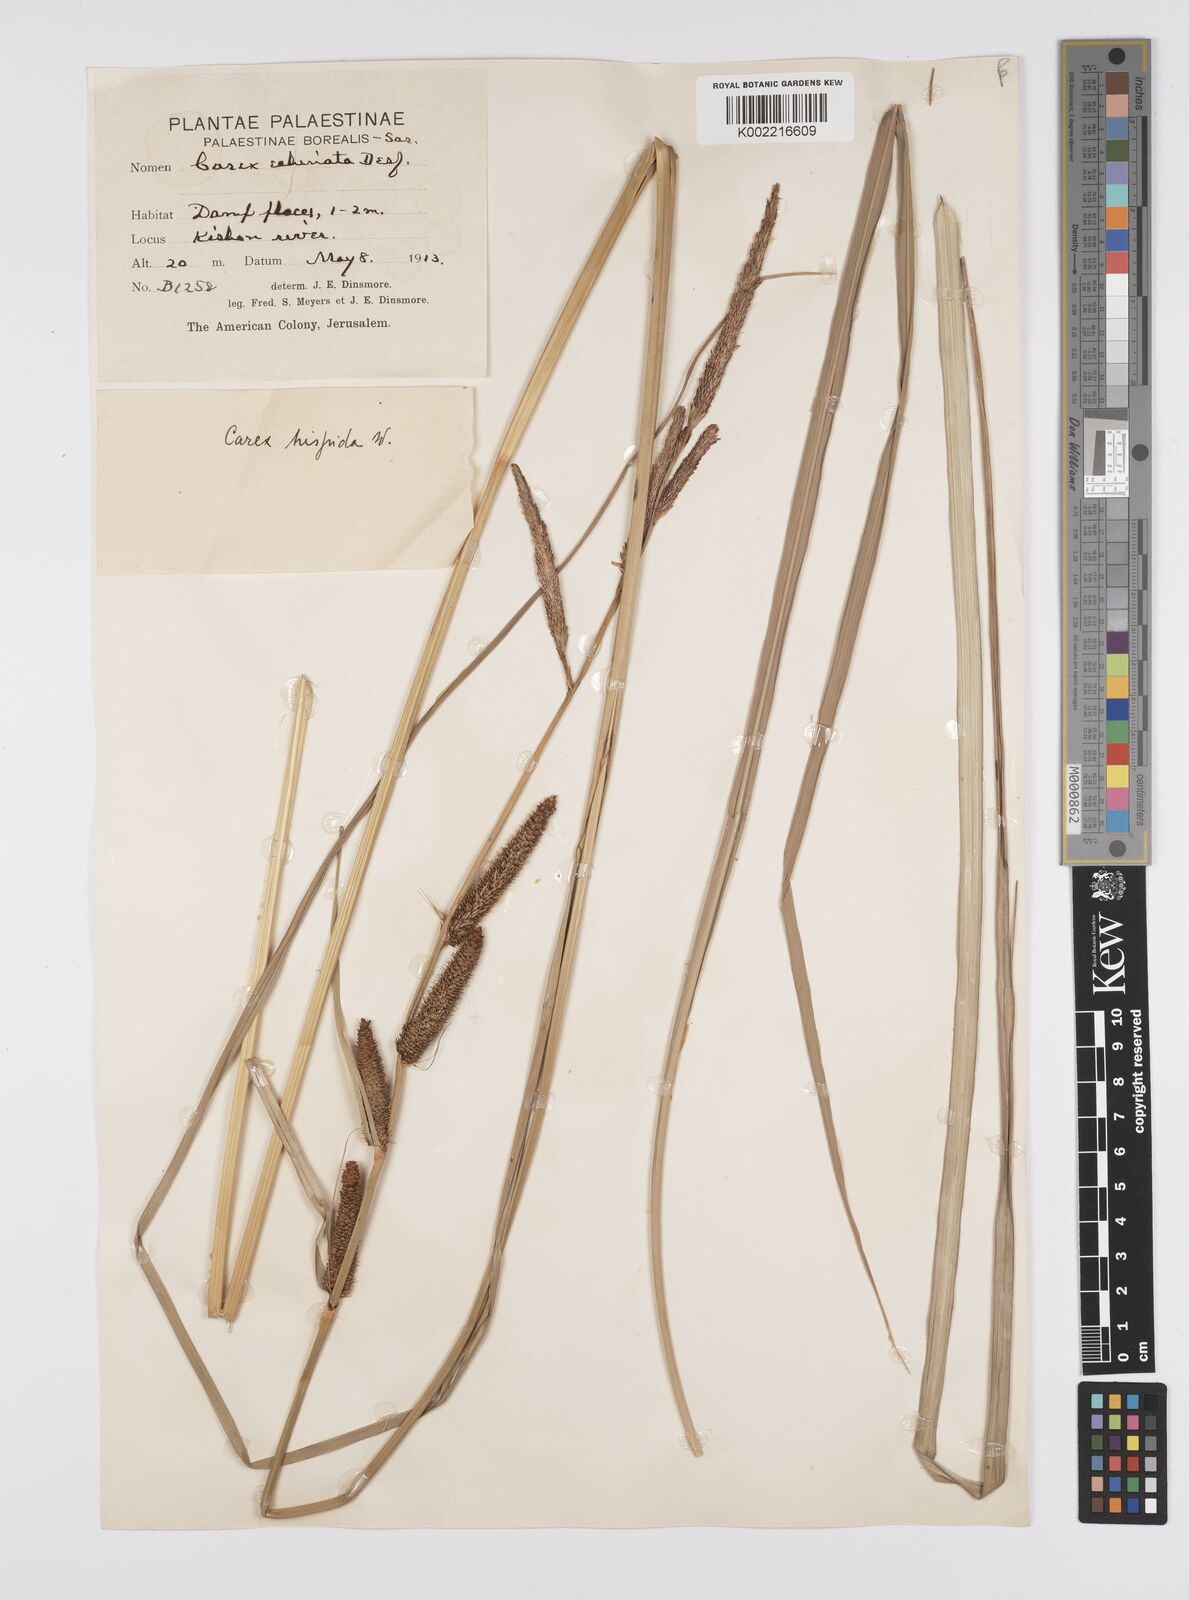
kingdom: Plantae
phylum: Tracheophyta
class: Liliopsida
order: Poales
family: Cyperaceae
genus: Carex
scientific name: Carex hispida
